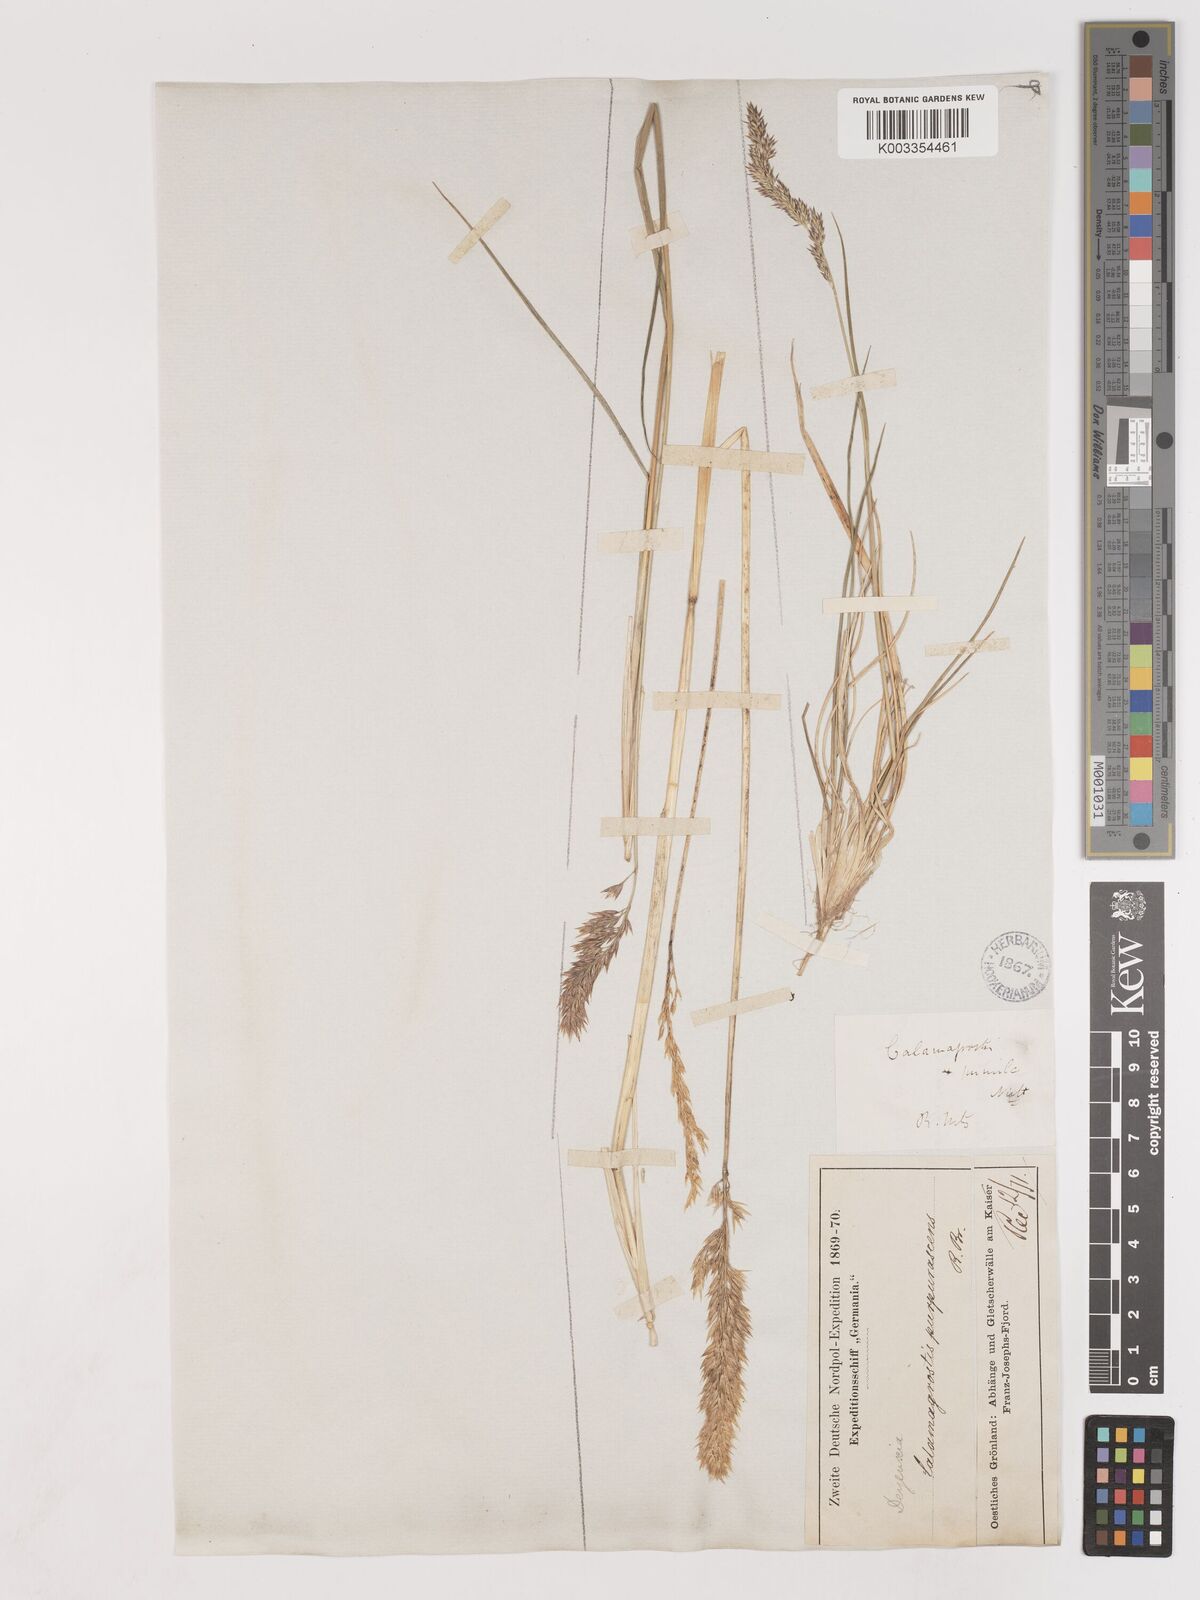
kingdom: Plantae
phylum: Tracheophyta
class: Liliopsida
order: Poales
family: Poaceae
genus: Calamagrostis
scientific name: Calamagrostis purpurascens
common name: Purple reedgrass
